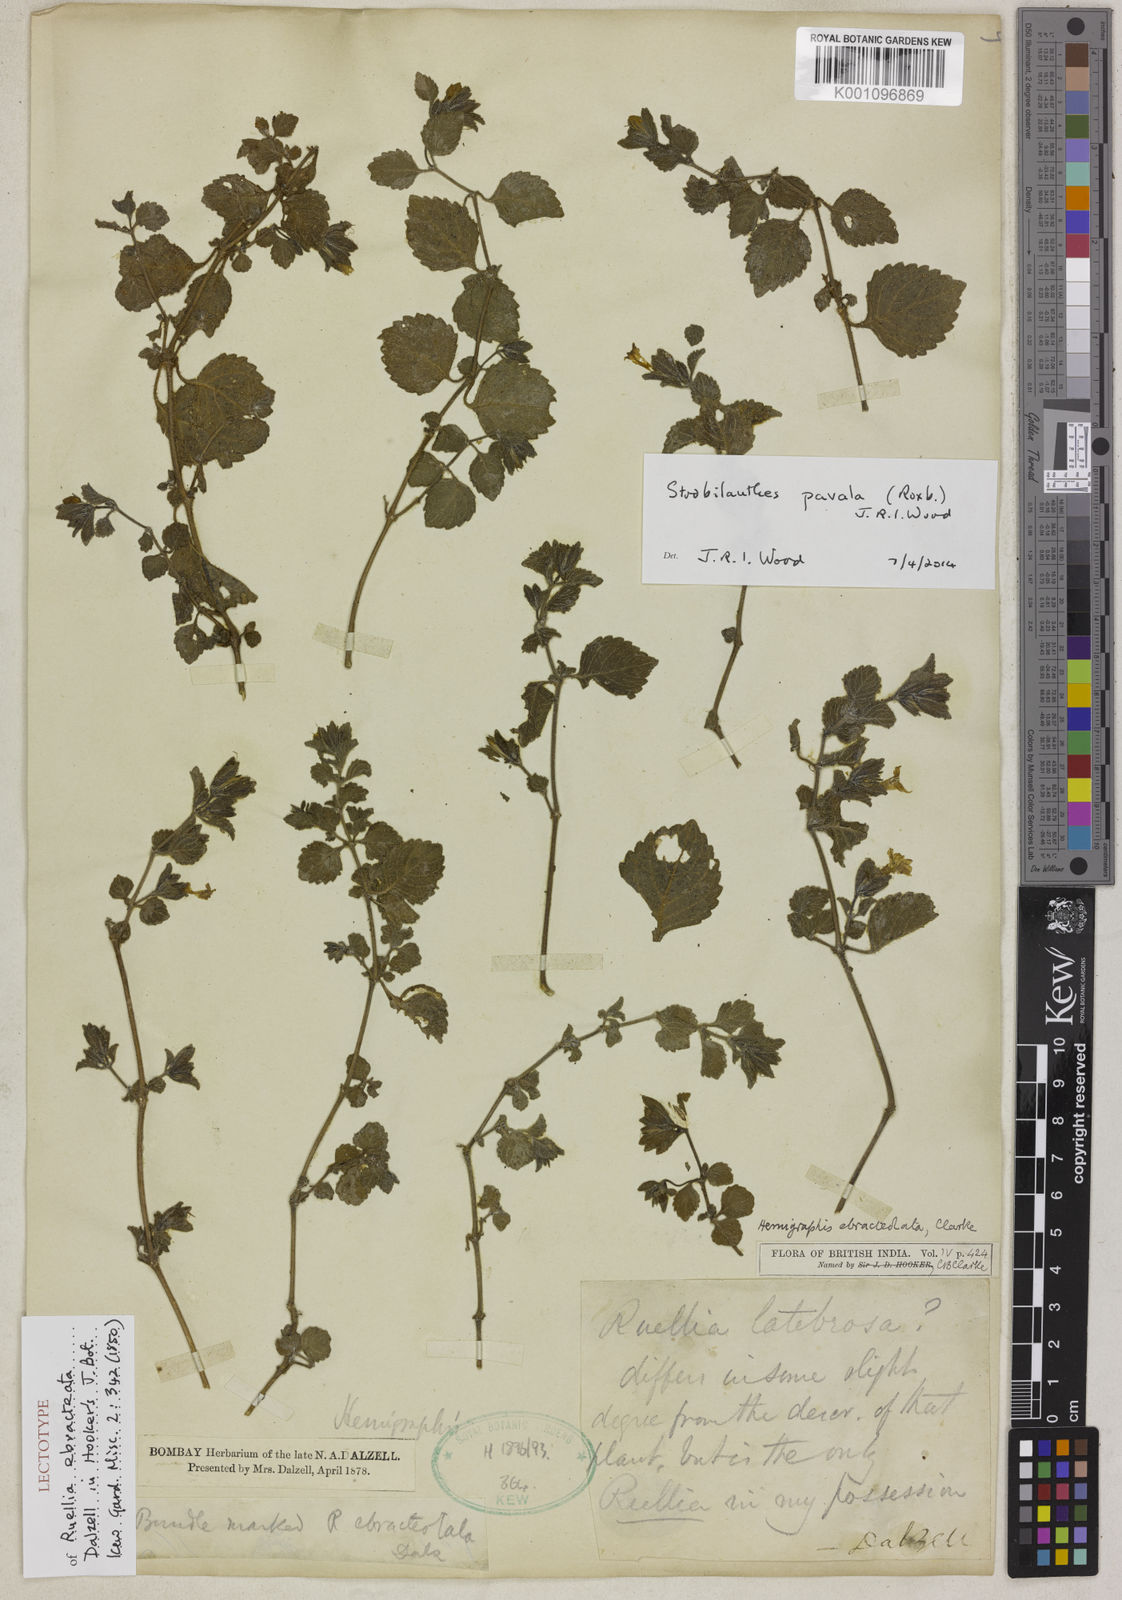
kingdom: Plantae
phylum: Tracheophyta
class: Magnoliopsida
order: Lamiales
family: Acanthaceae
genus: Strobilanthes
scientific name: Strobilanthes
